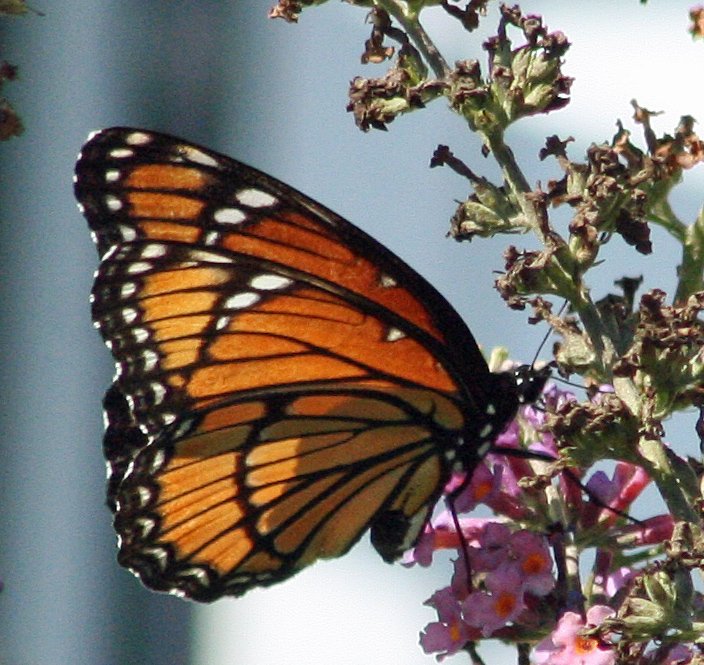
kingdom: Animalia
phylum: Arthropoda
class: Insecta
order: Lepidoptera
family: Nymphalidae
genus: Limenitis
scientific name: Limenitis archippus
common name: Viceroy
